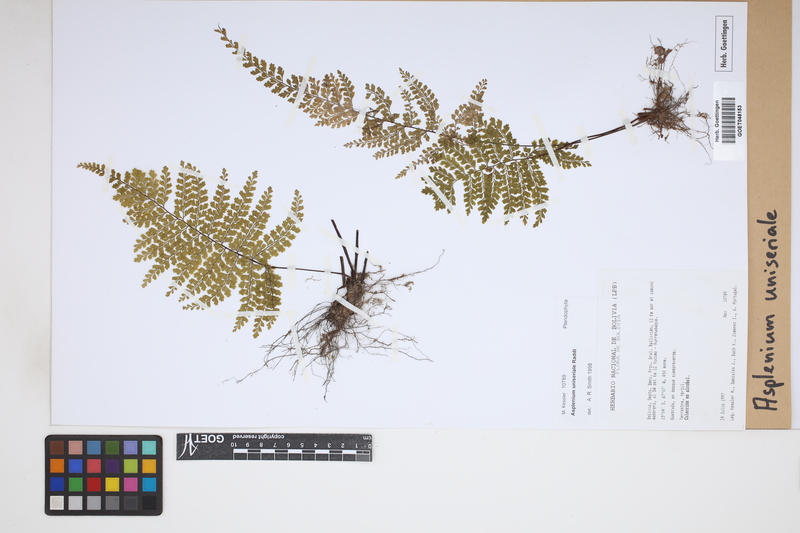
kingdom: Plantae
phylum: Tracheophyta
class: Polypodiopsida
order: Polypodiales
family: Aspleniaceae
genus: Asplenium
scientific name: Asplenium uniseriale
